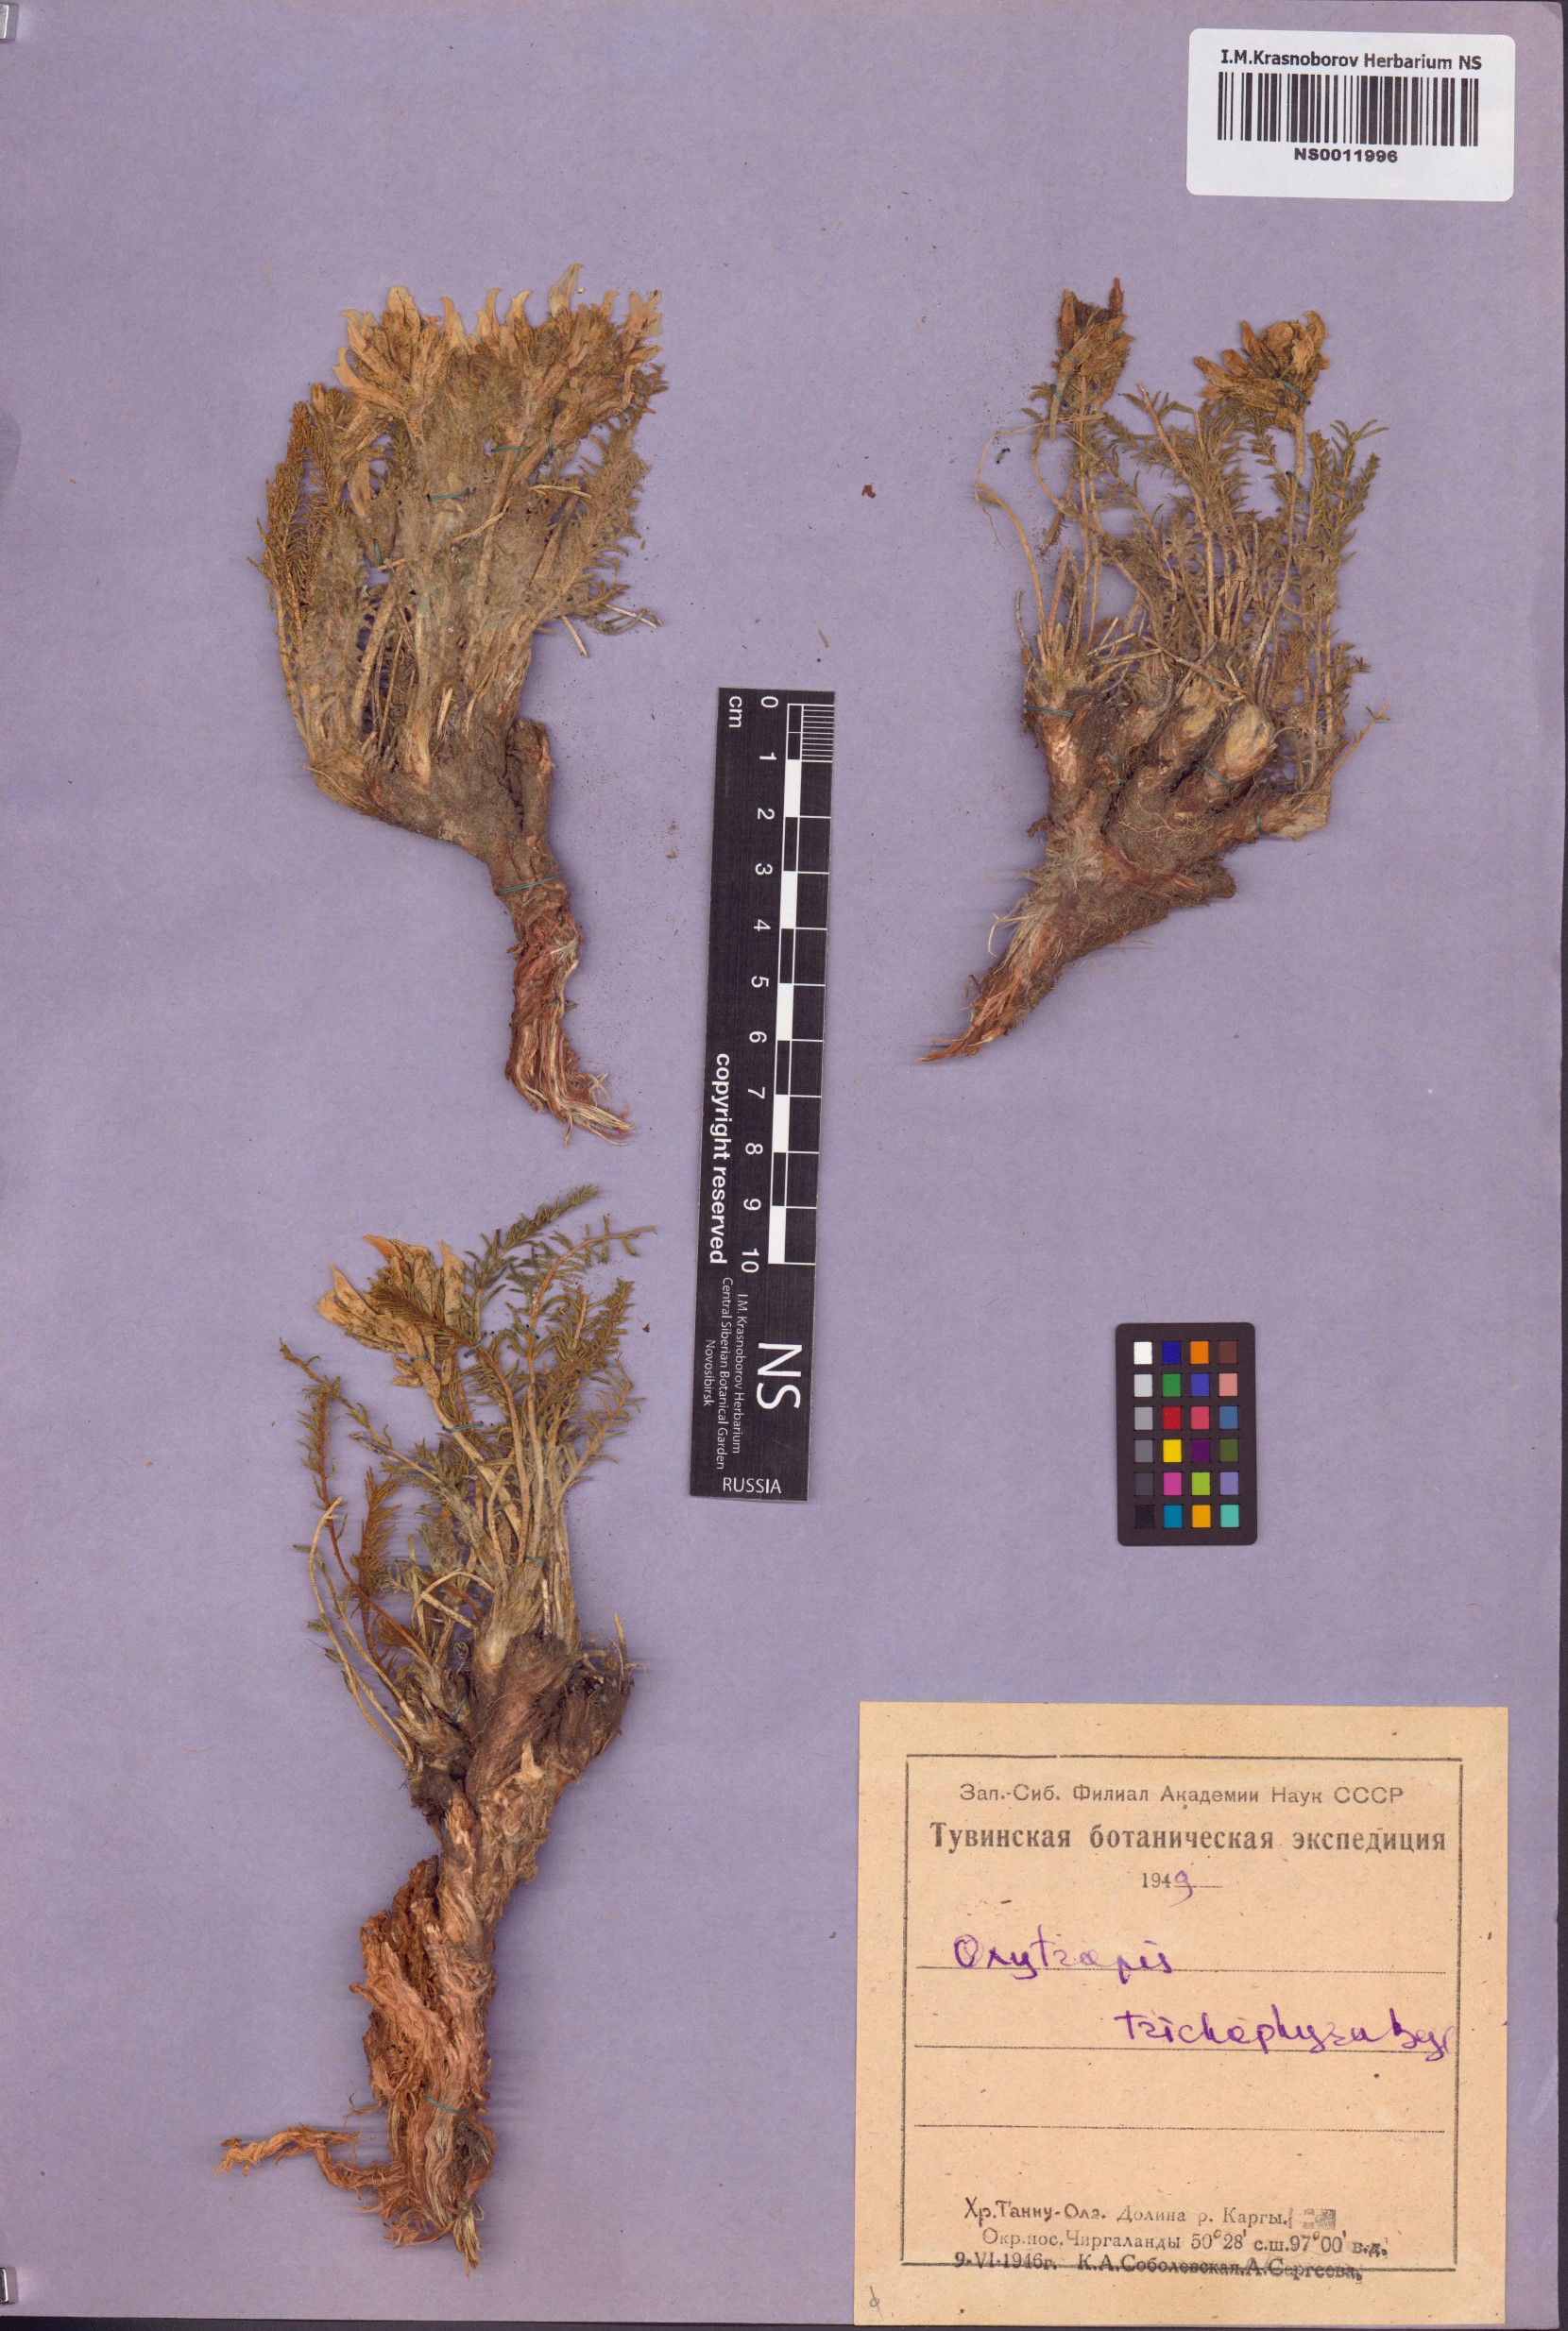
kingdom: Plantae
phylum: Tracheophyta
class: Magnoliopsida
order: Fabales
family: Fabaceae
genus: Oxytropis
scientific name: Oxytropis trichophysa
